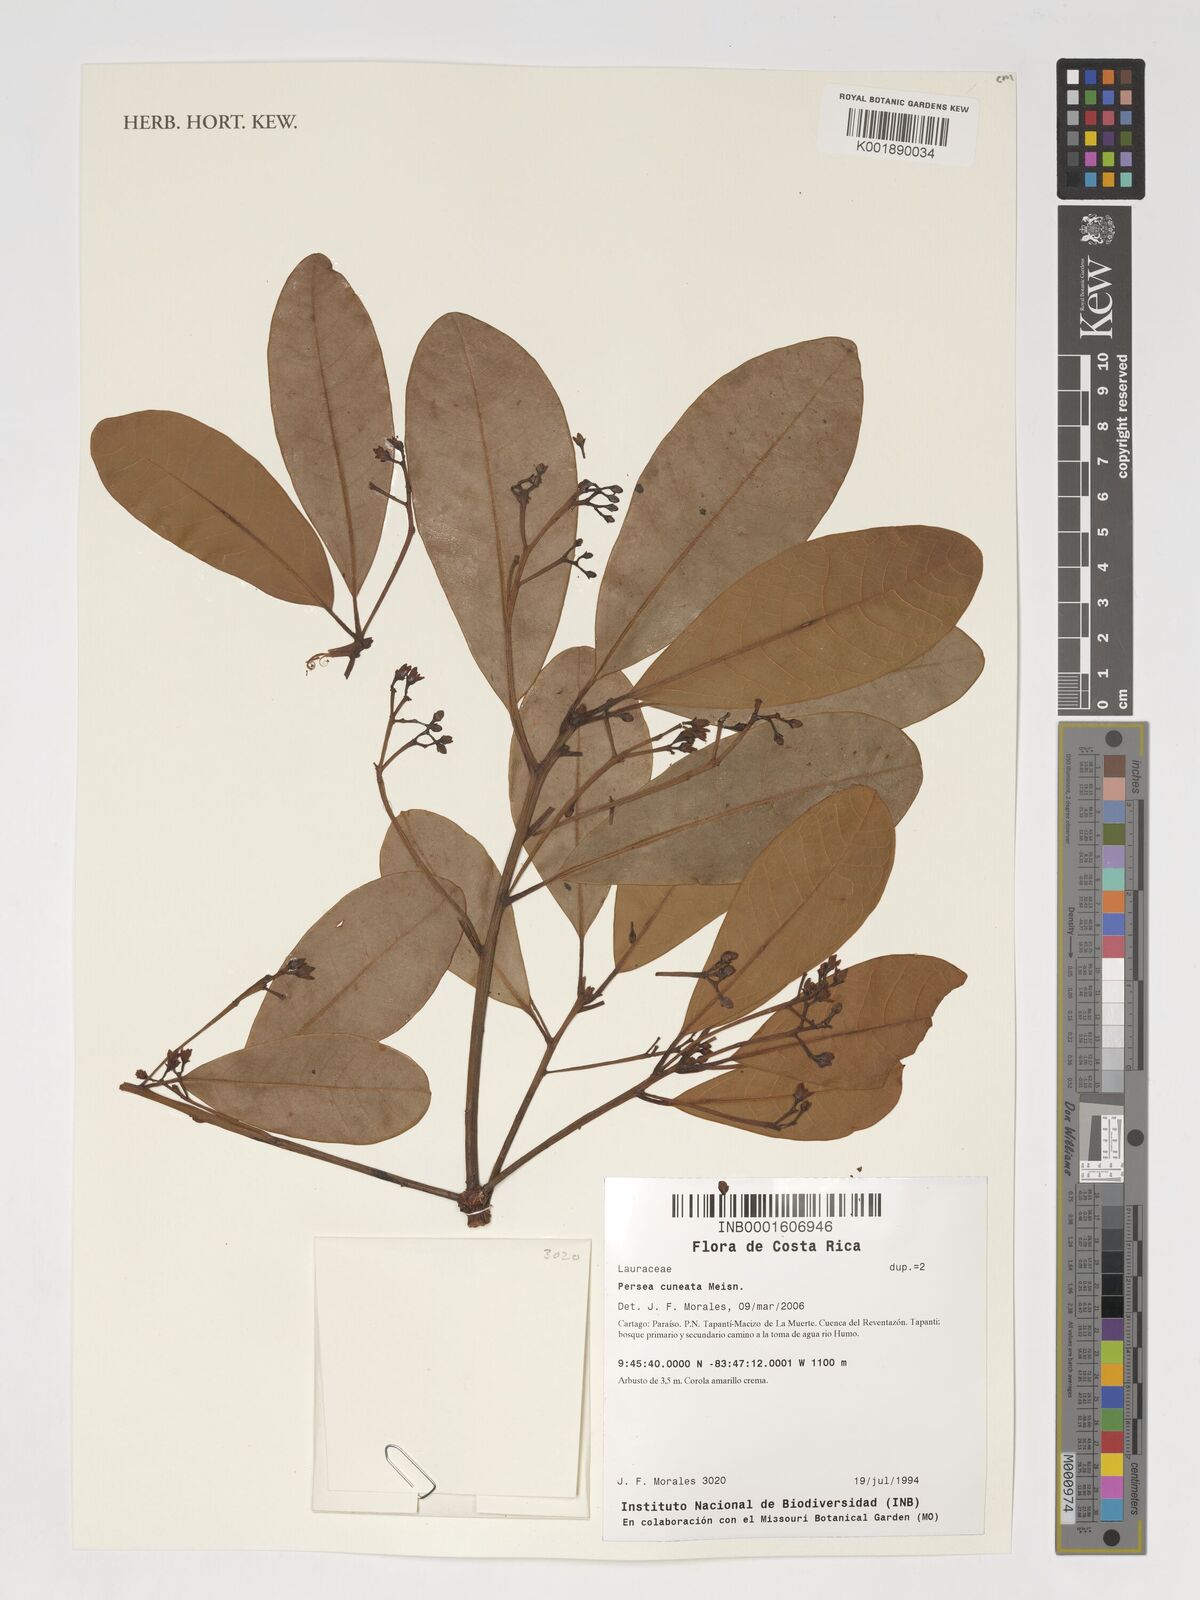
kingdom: Plantae
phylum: Tracheophyta
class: Magnoliopsida
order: Laurales
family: Lauraceae
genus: Persea
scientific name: Persea cuneata
